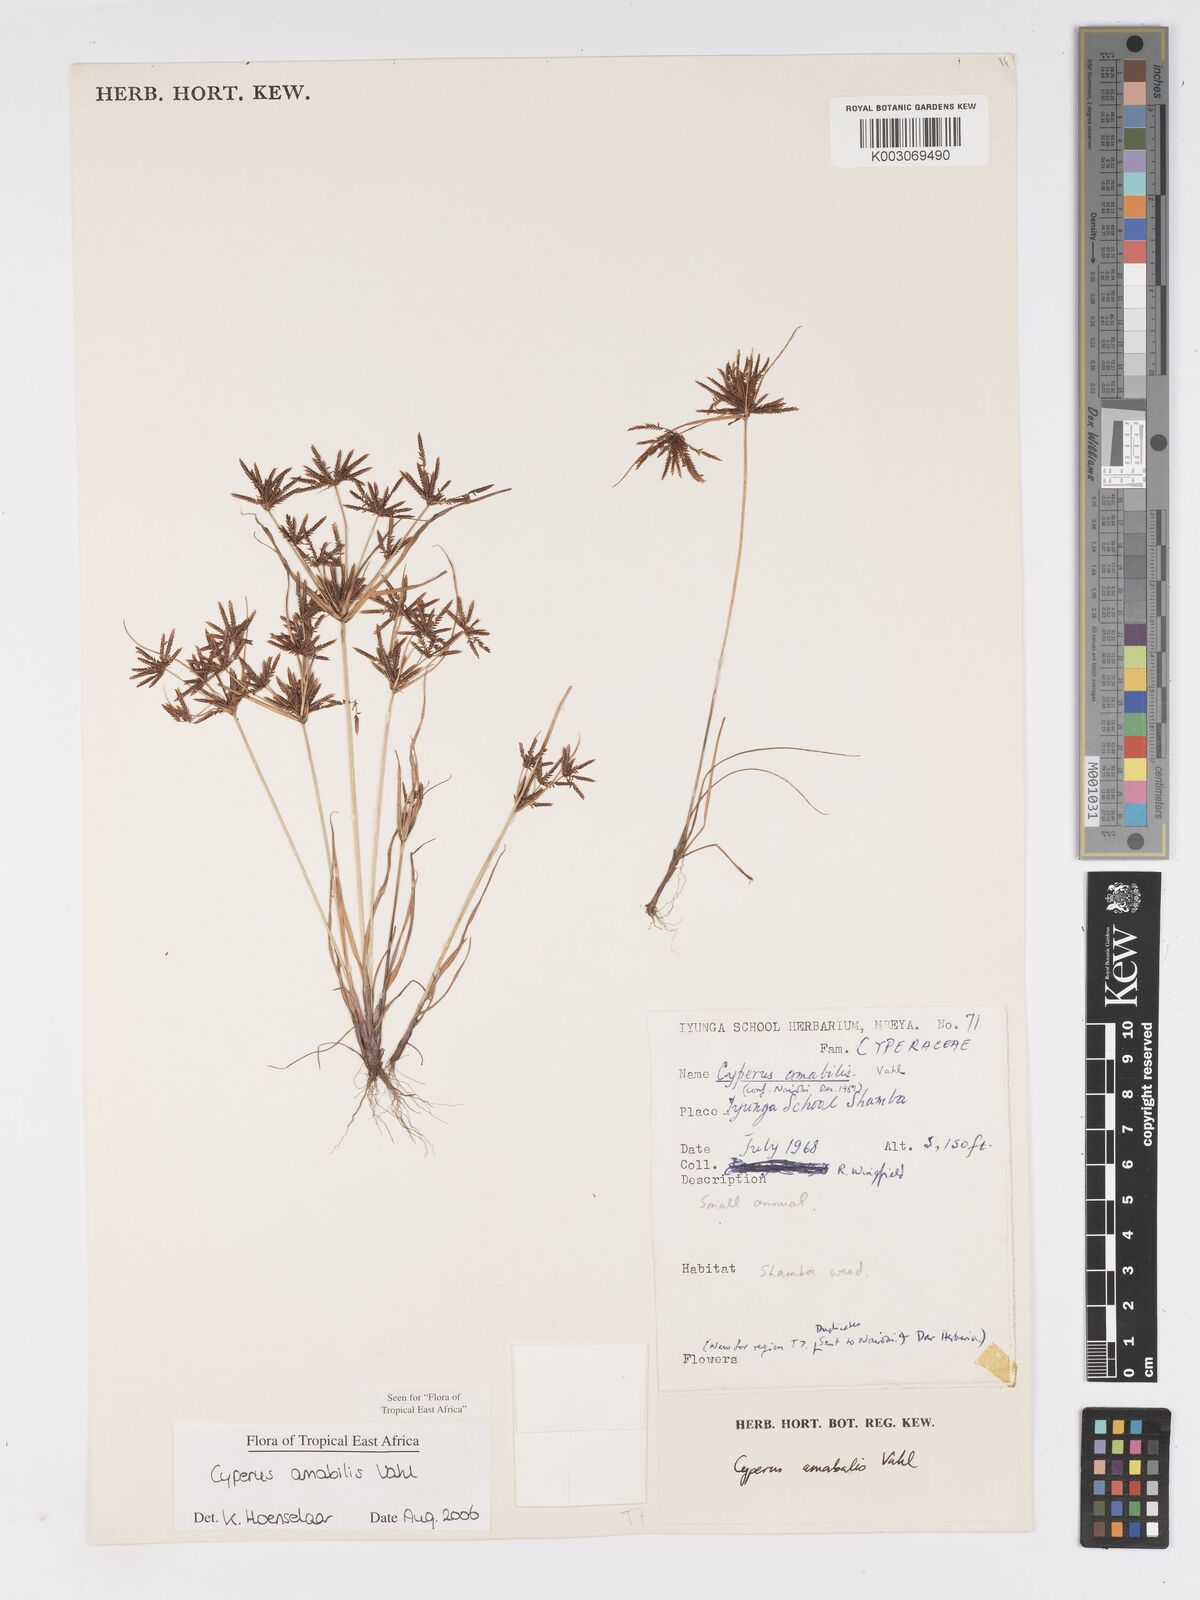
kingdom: Plantae
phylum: Tracheophyta
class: Liliopsida
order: Poales
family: Cyperaceae
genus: Cyperus
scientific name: Cyperus amabilis
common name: Foothill flat sedge
